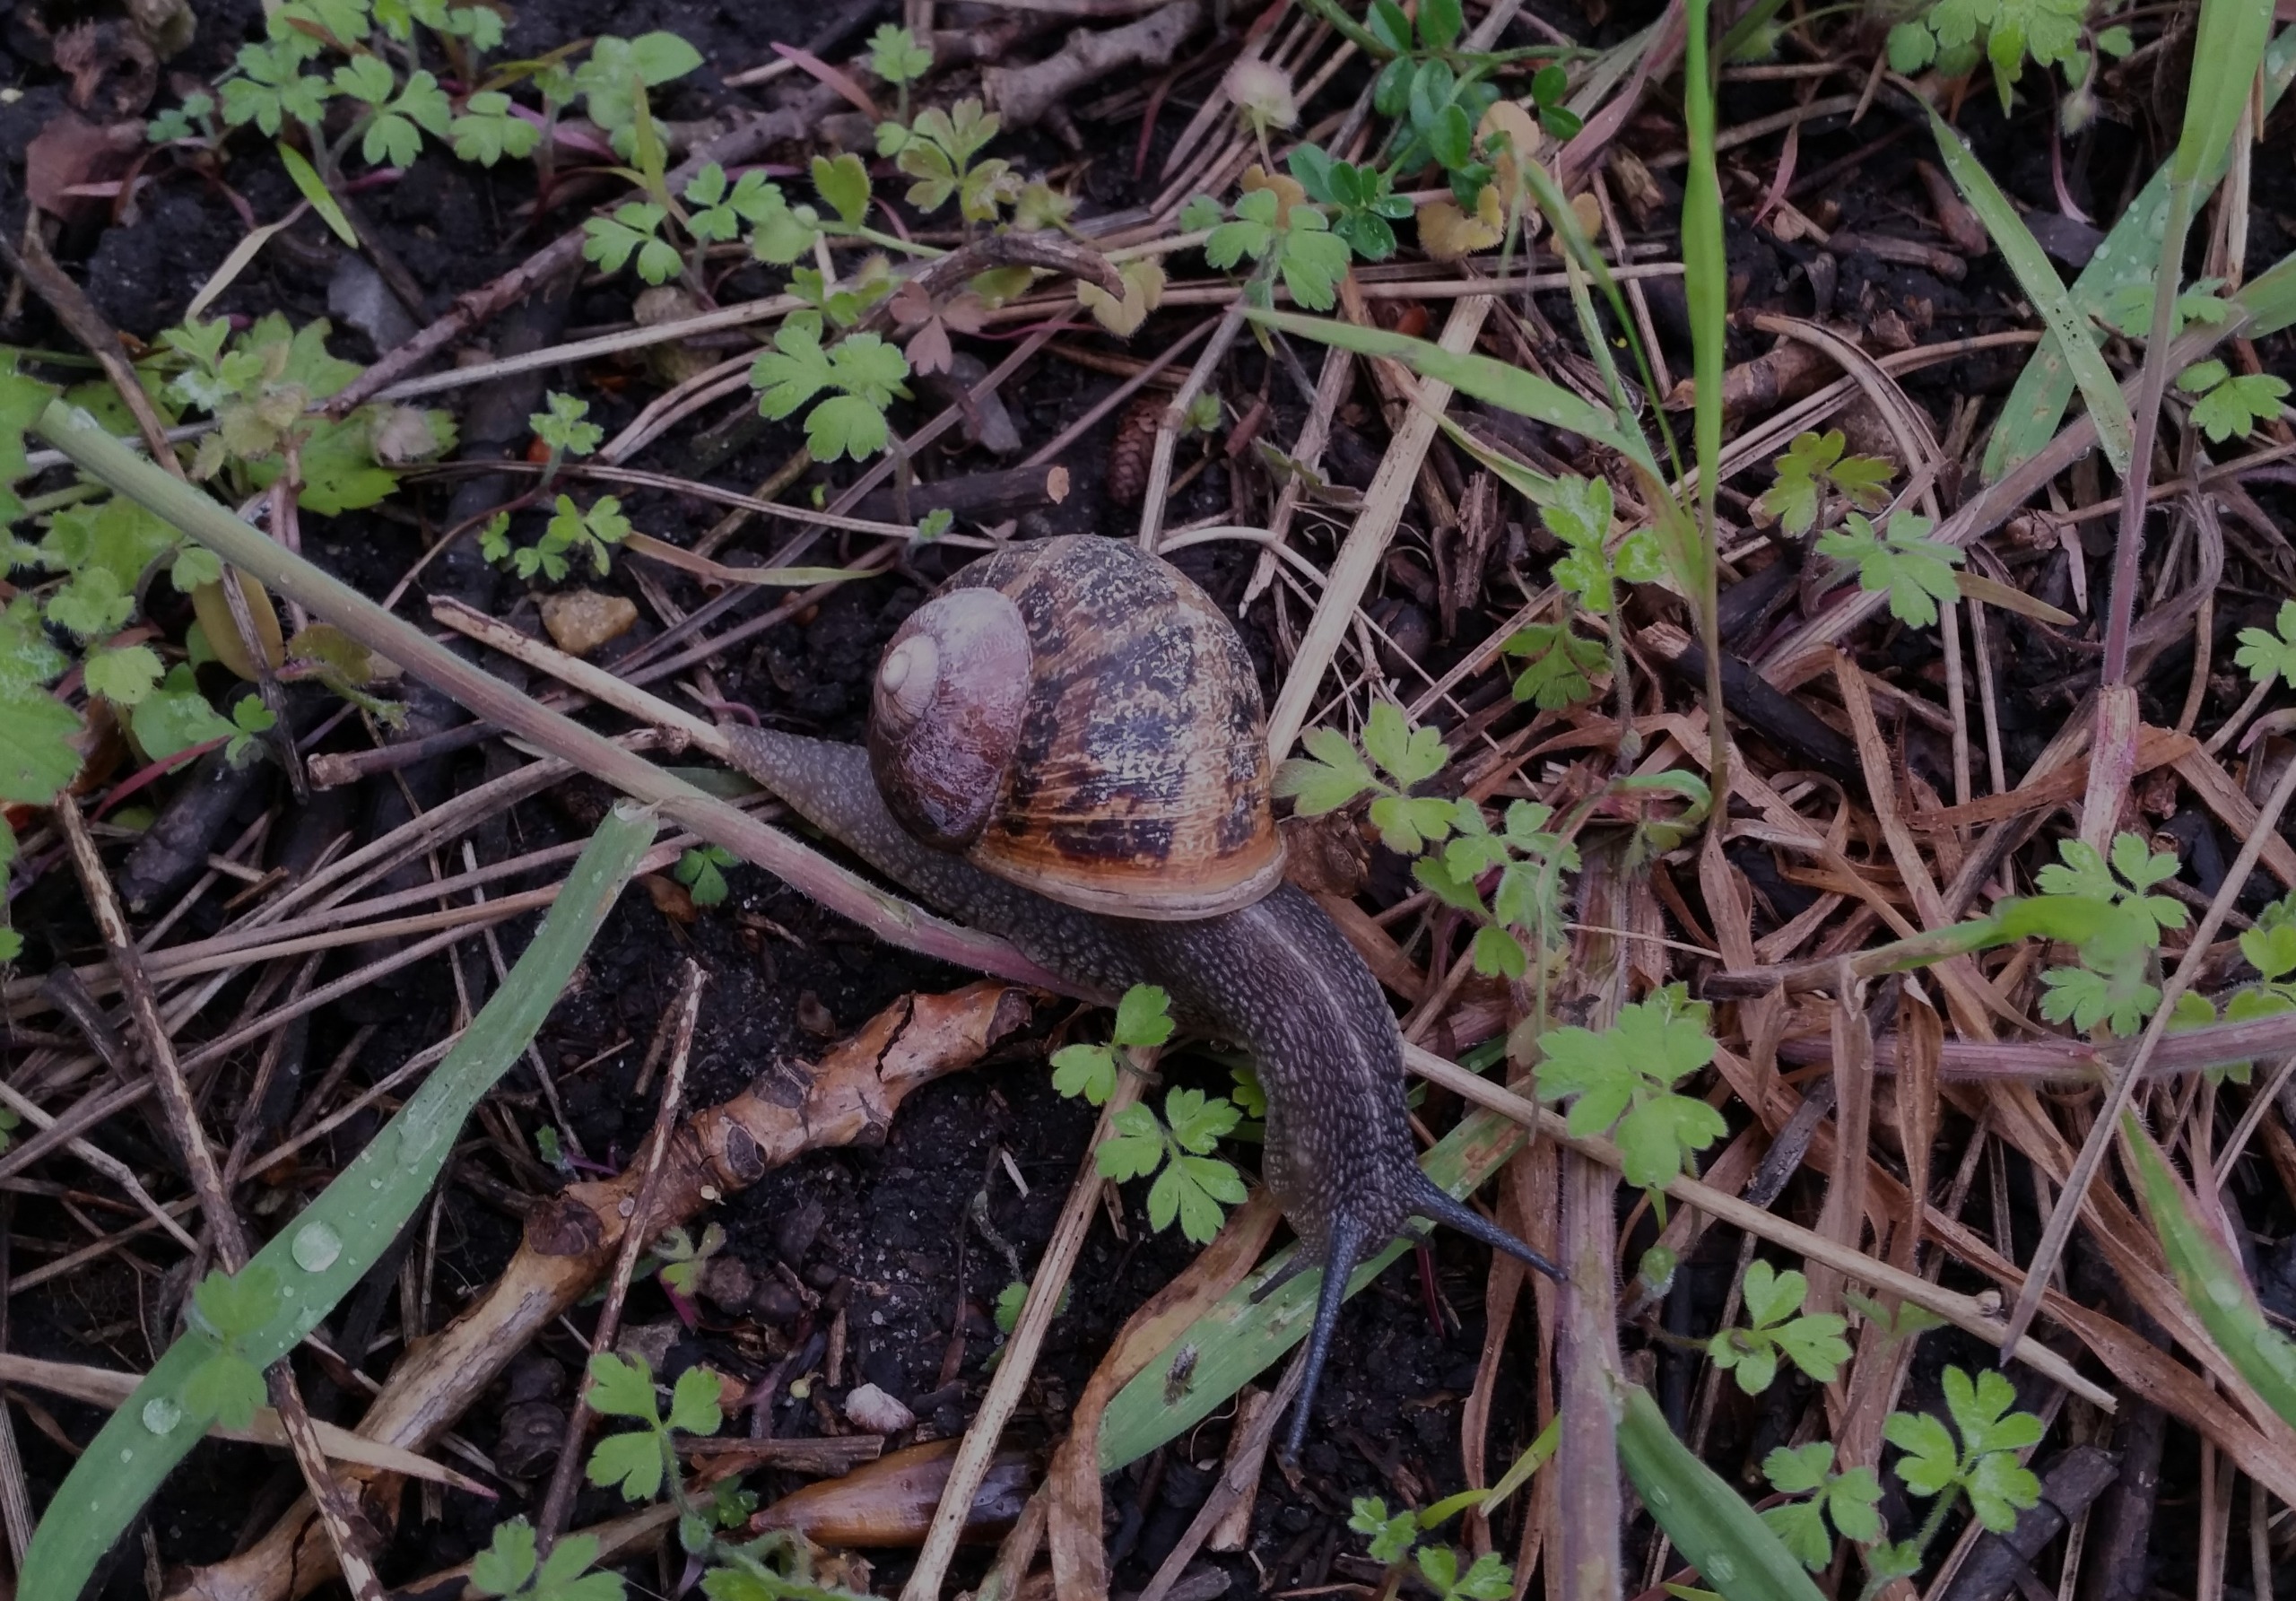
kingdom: Animalia
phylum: Mollusca
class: Gastropoda
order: Stylommatophora
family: Helicidae
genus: Cornu
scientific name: Cornu aspersum
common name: Plettet voldsnegl
